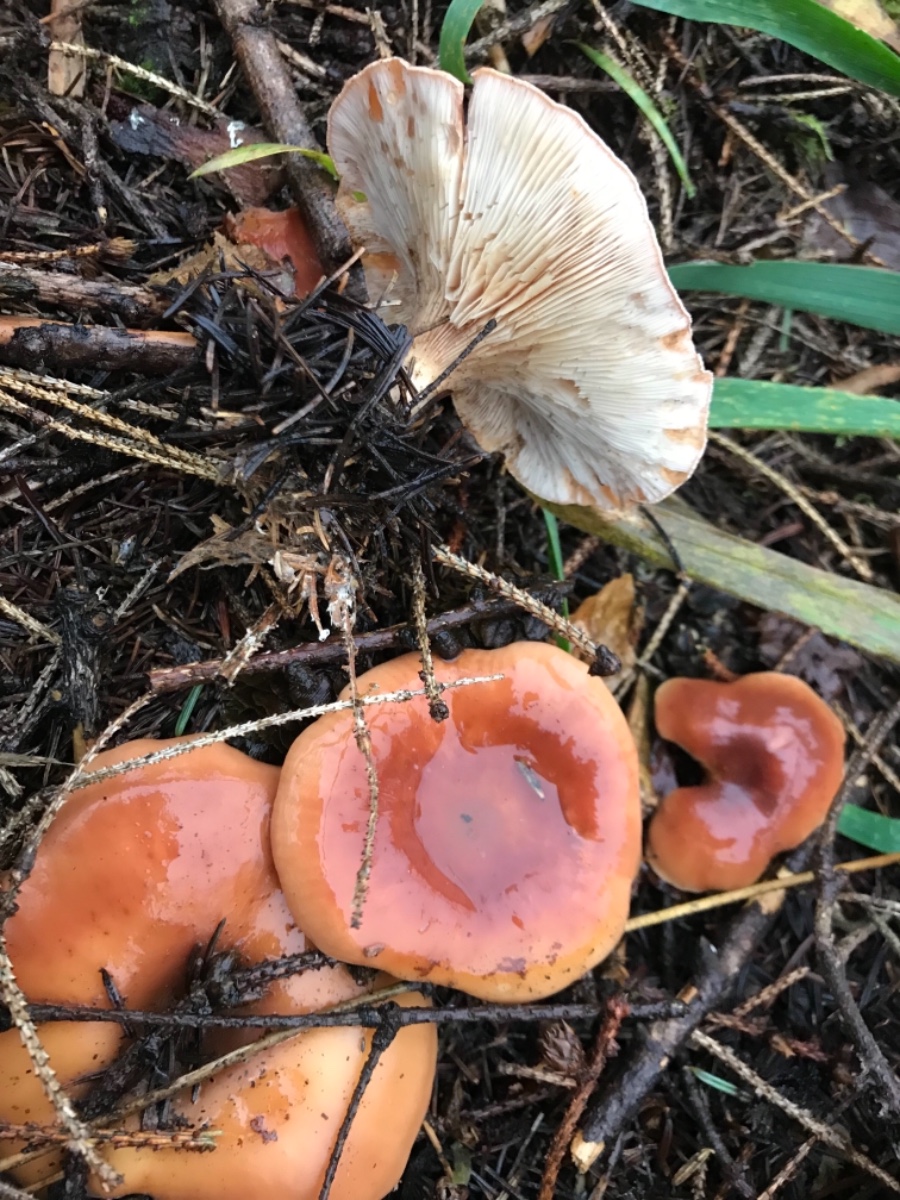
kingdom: Fungi
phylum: Basidiomycota
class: Agaricomycetes
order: Agaricales
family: Tricholomataceae
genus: Paralepista
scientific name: Paralepista flaccida
